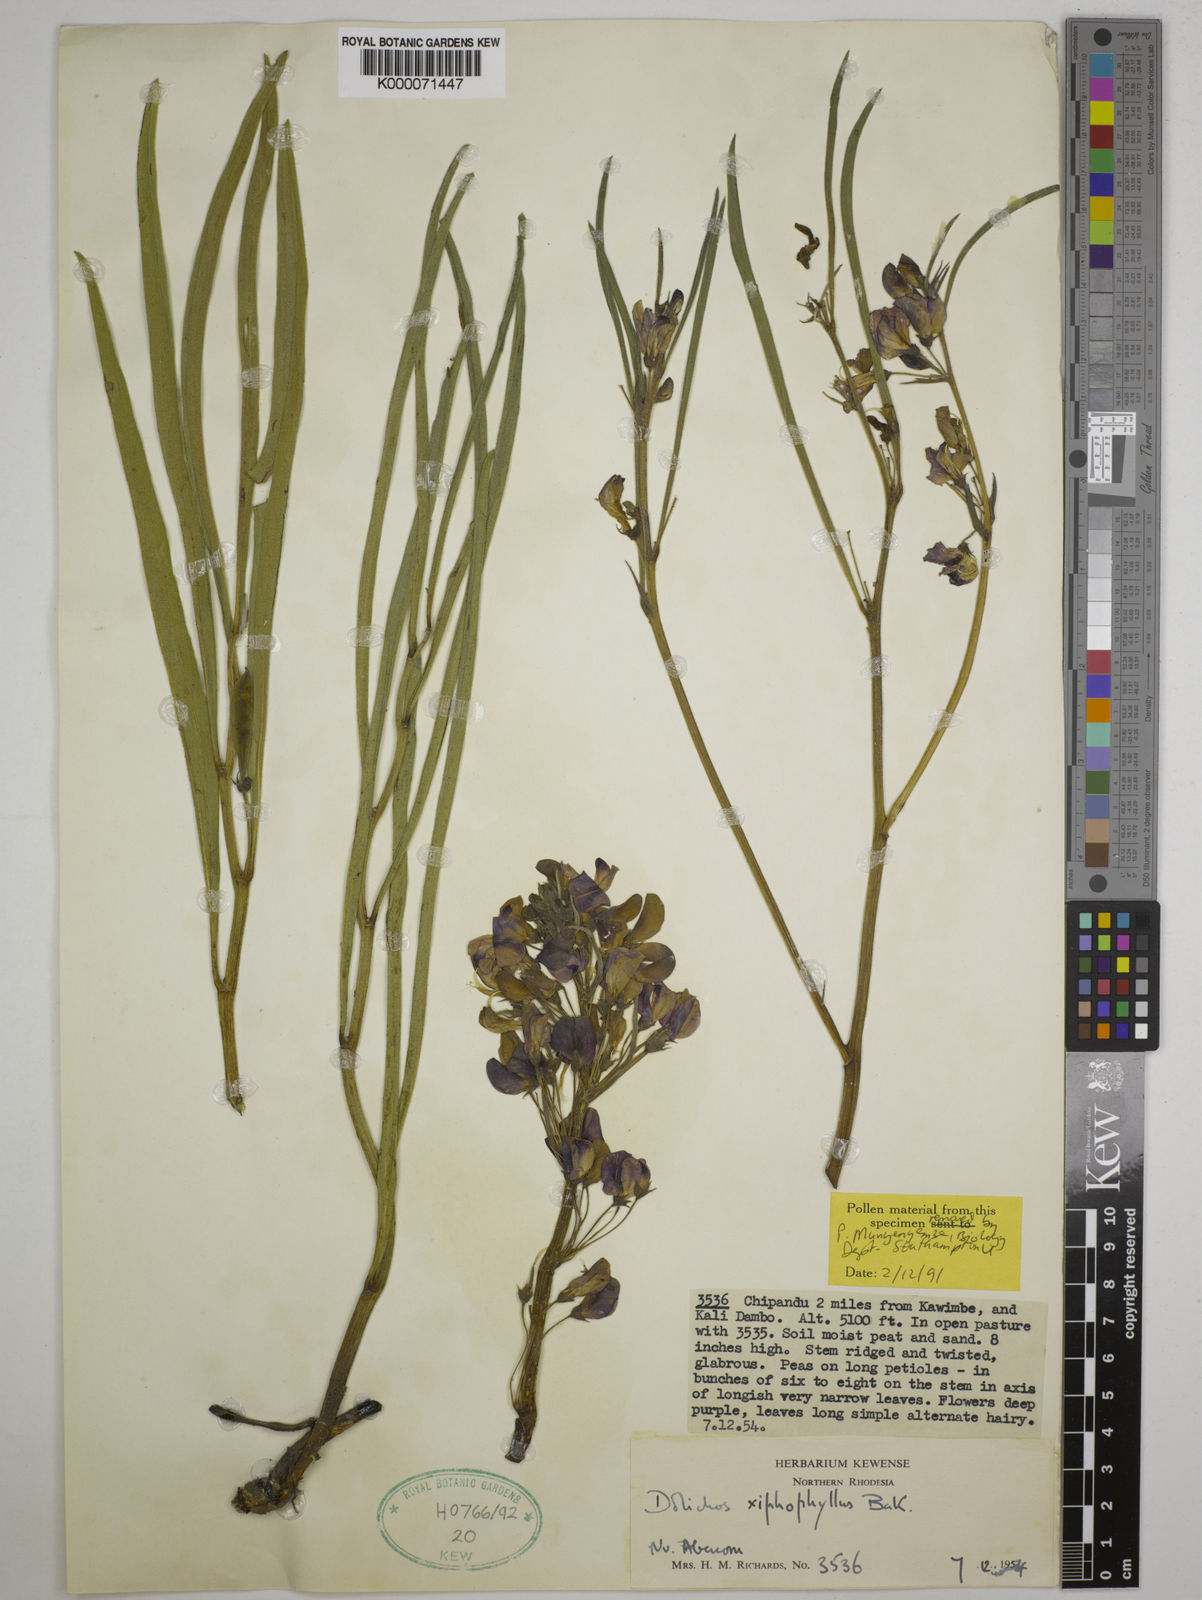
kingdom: Plantae
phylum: Tracheophyta
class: Magnoliopsida
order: Fabales
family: Fabaceae
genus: Dolichos
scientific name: Dolichos xiphophyllus
